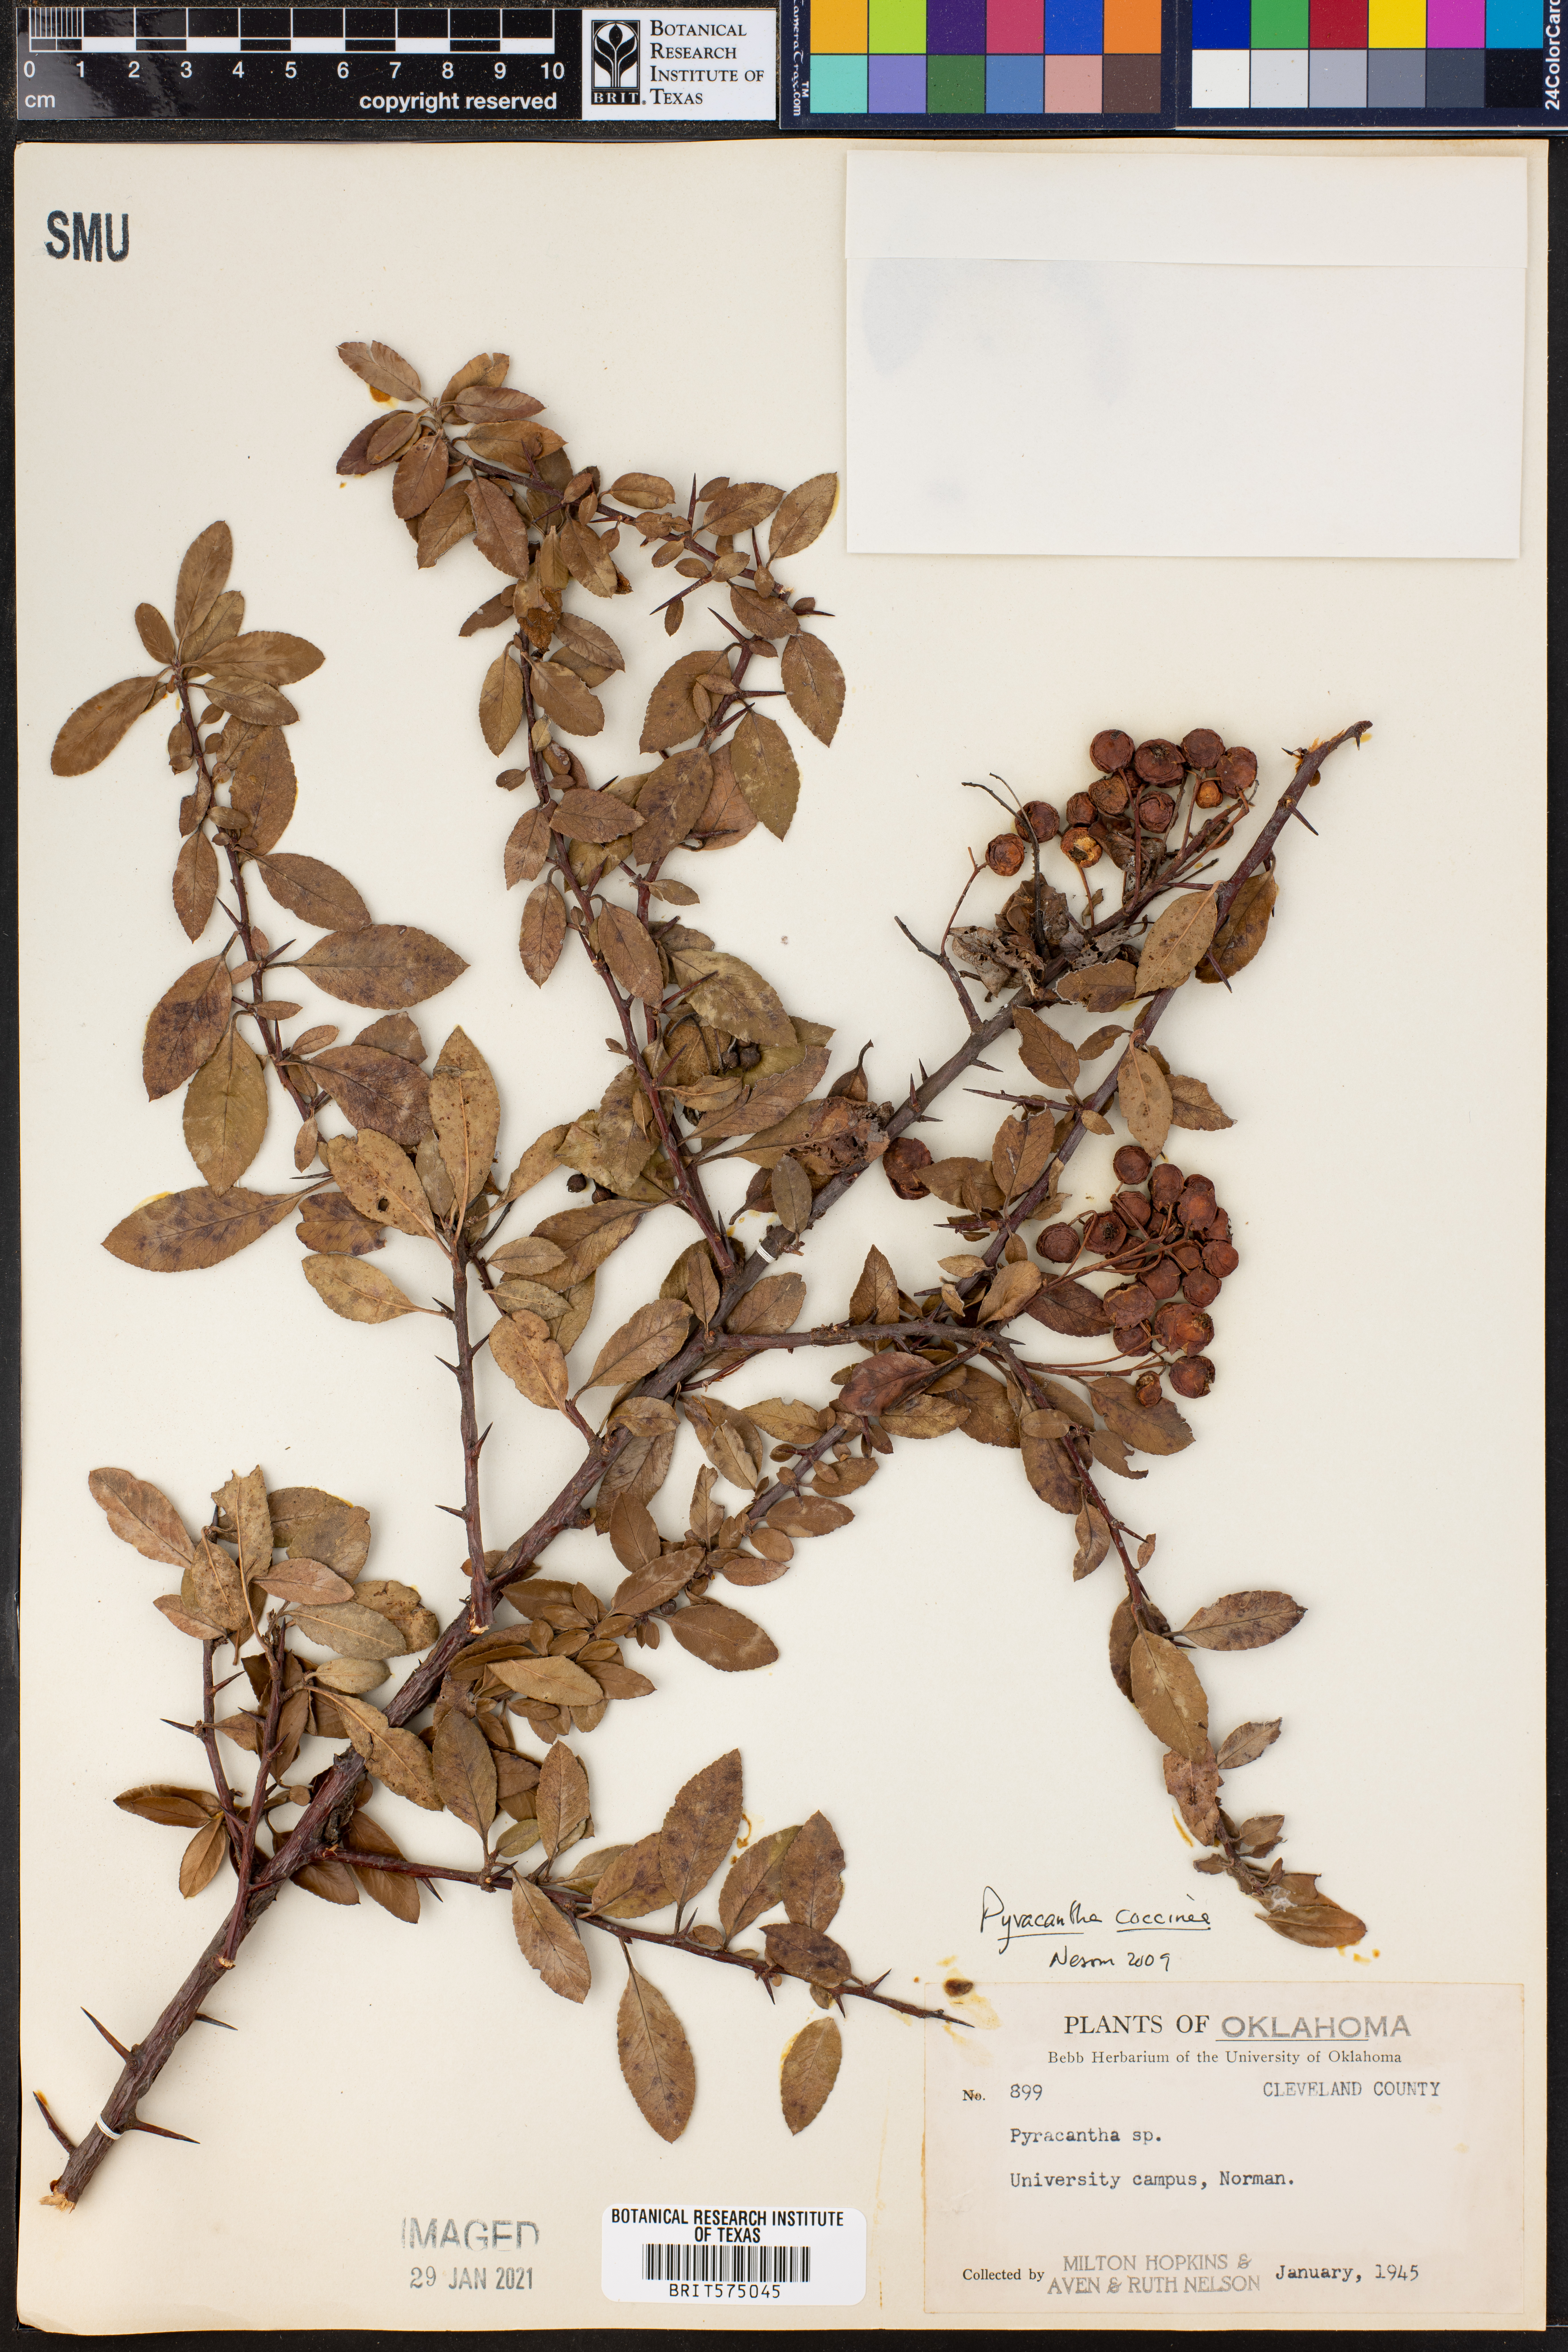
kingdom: Plantae
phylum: Tracheophyta
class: Magnoliopsida
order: Rosales
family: Rosaceae
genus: Pyracantha
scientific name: Pyracantha coccinea
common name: Firethorn
